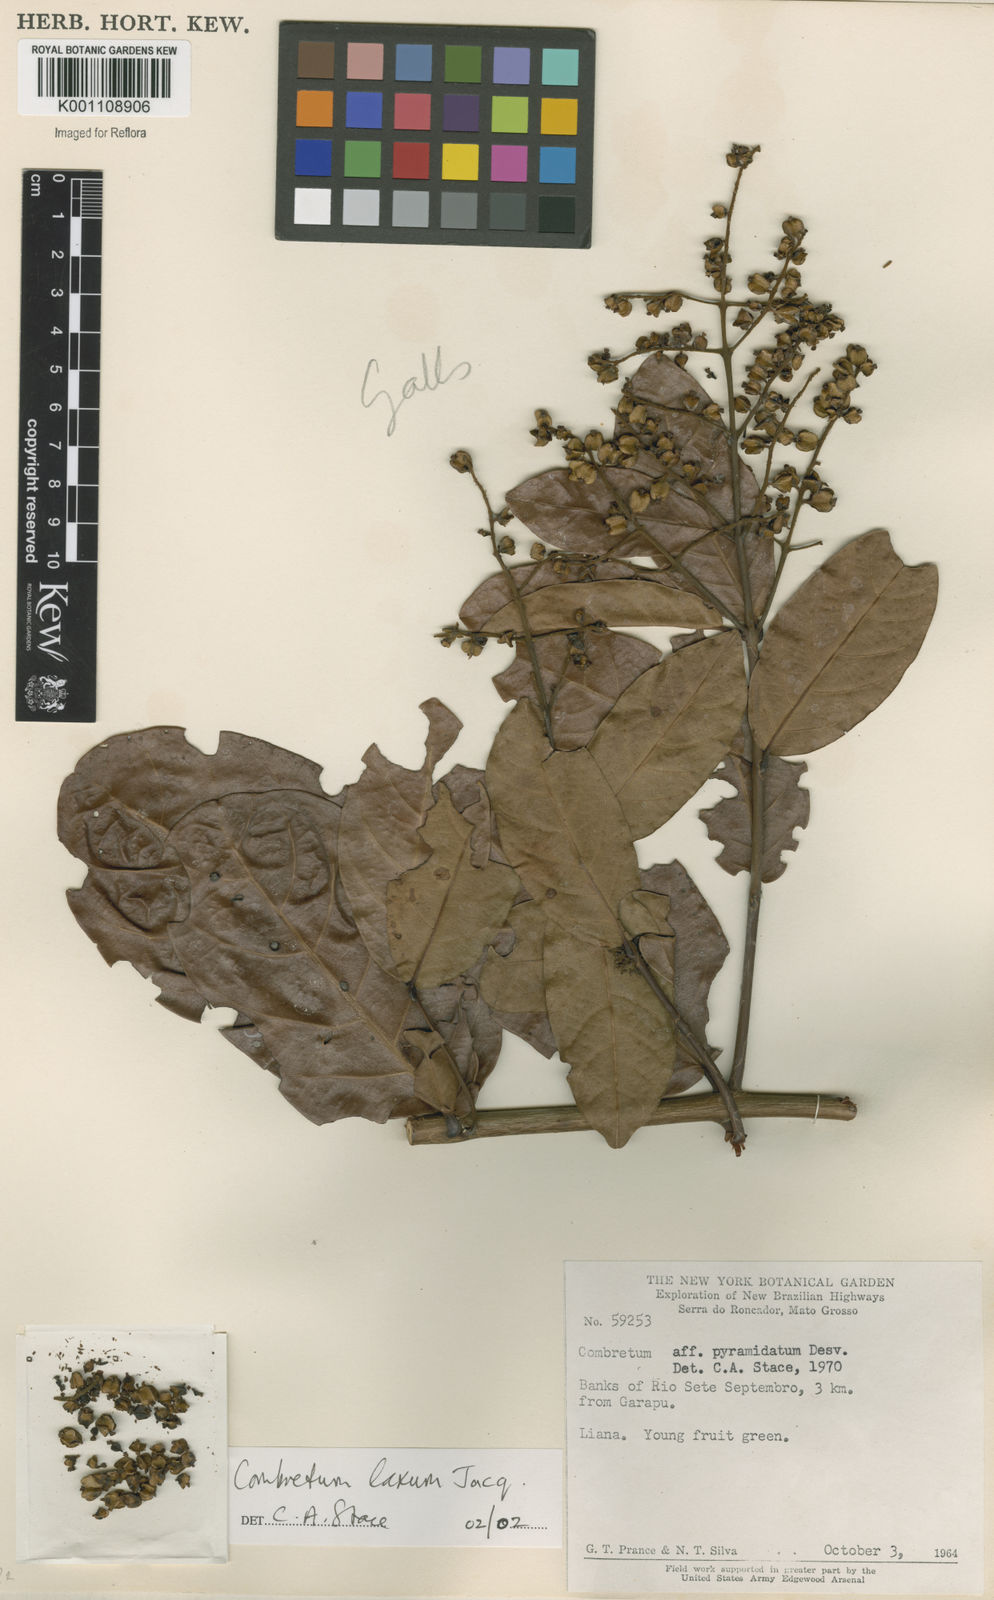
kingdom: Plantae
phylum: Tracheophyta
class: Magnoliopsida
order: Myrtales
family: Combretaceae
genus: Combretum
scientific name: Combretum laxum
